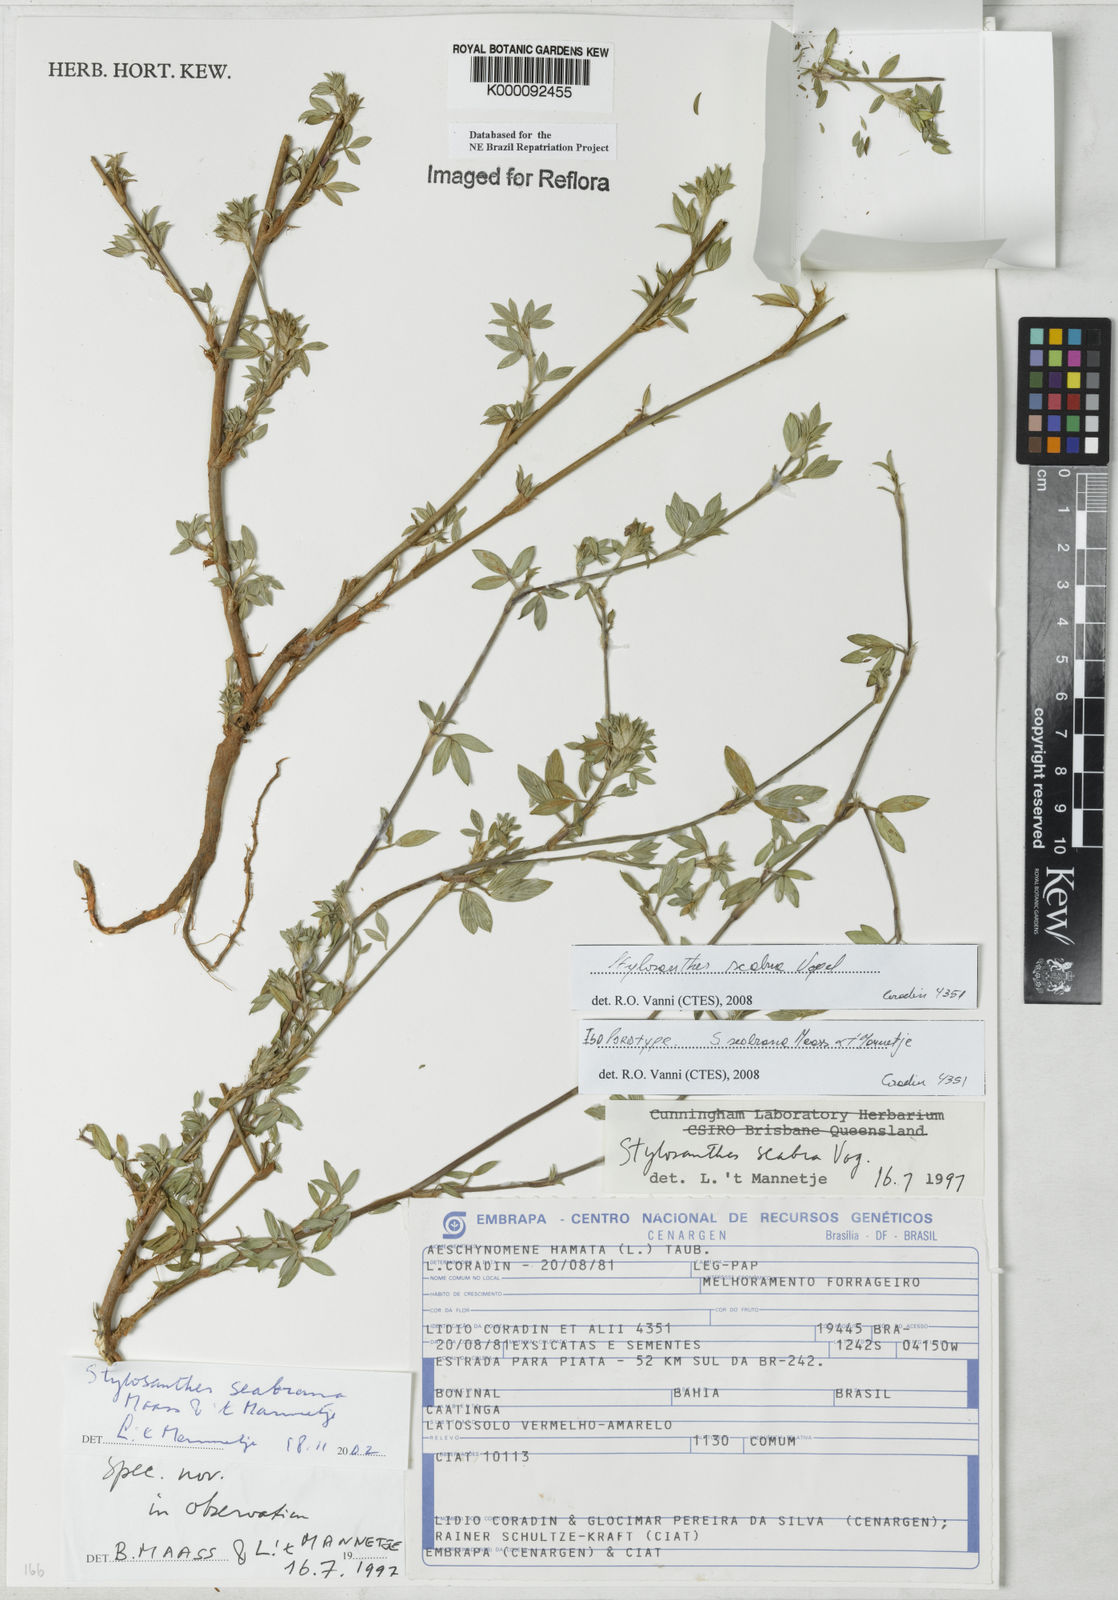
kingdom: Plantae
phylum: Tracheophyta
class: Magnoliopsida
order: Fabales
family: Fabaceae
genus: Stylosanthes
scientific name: Stylosanthes scabra
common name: Pencilflower
